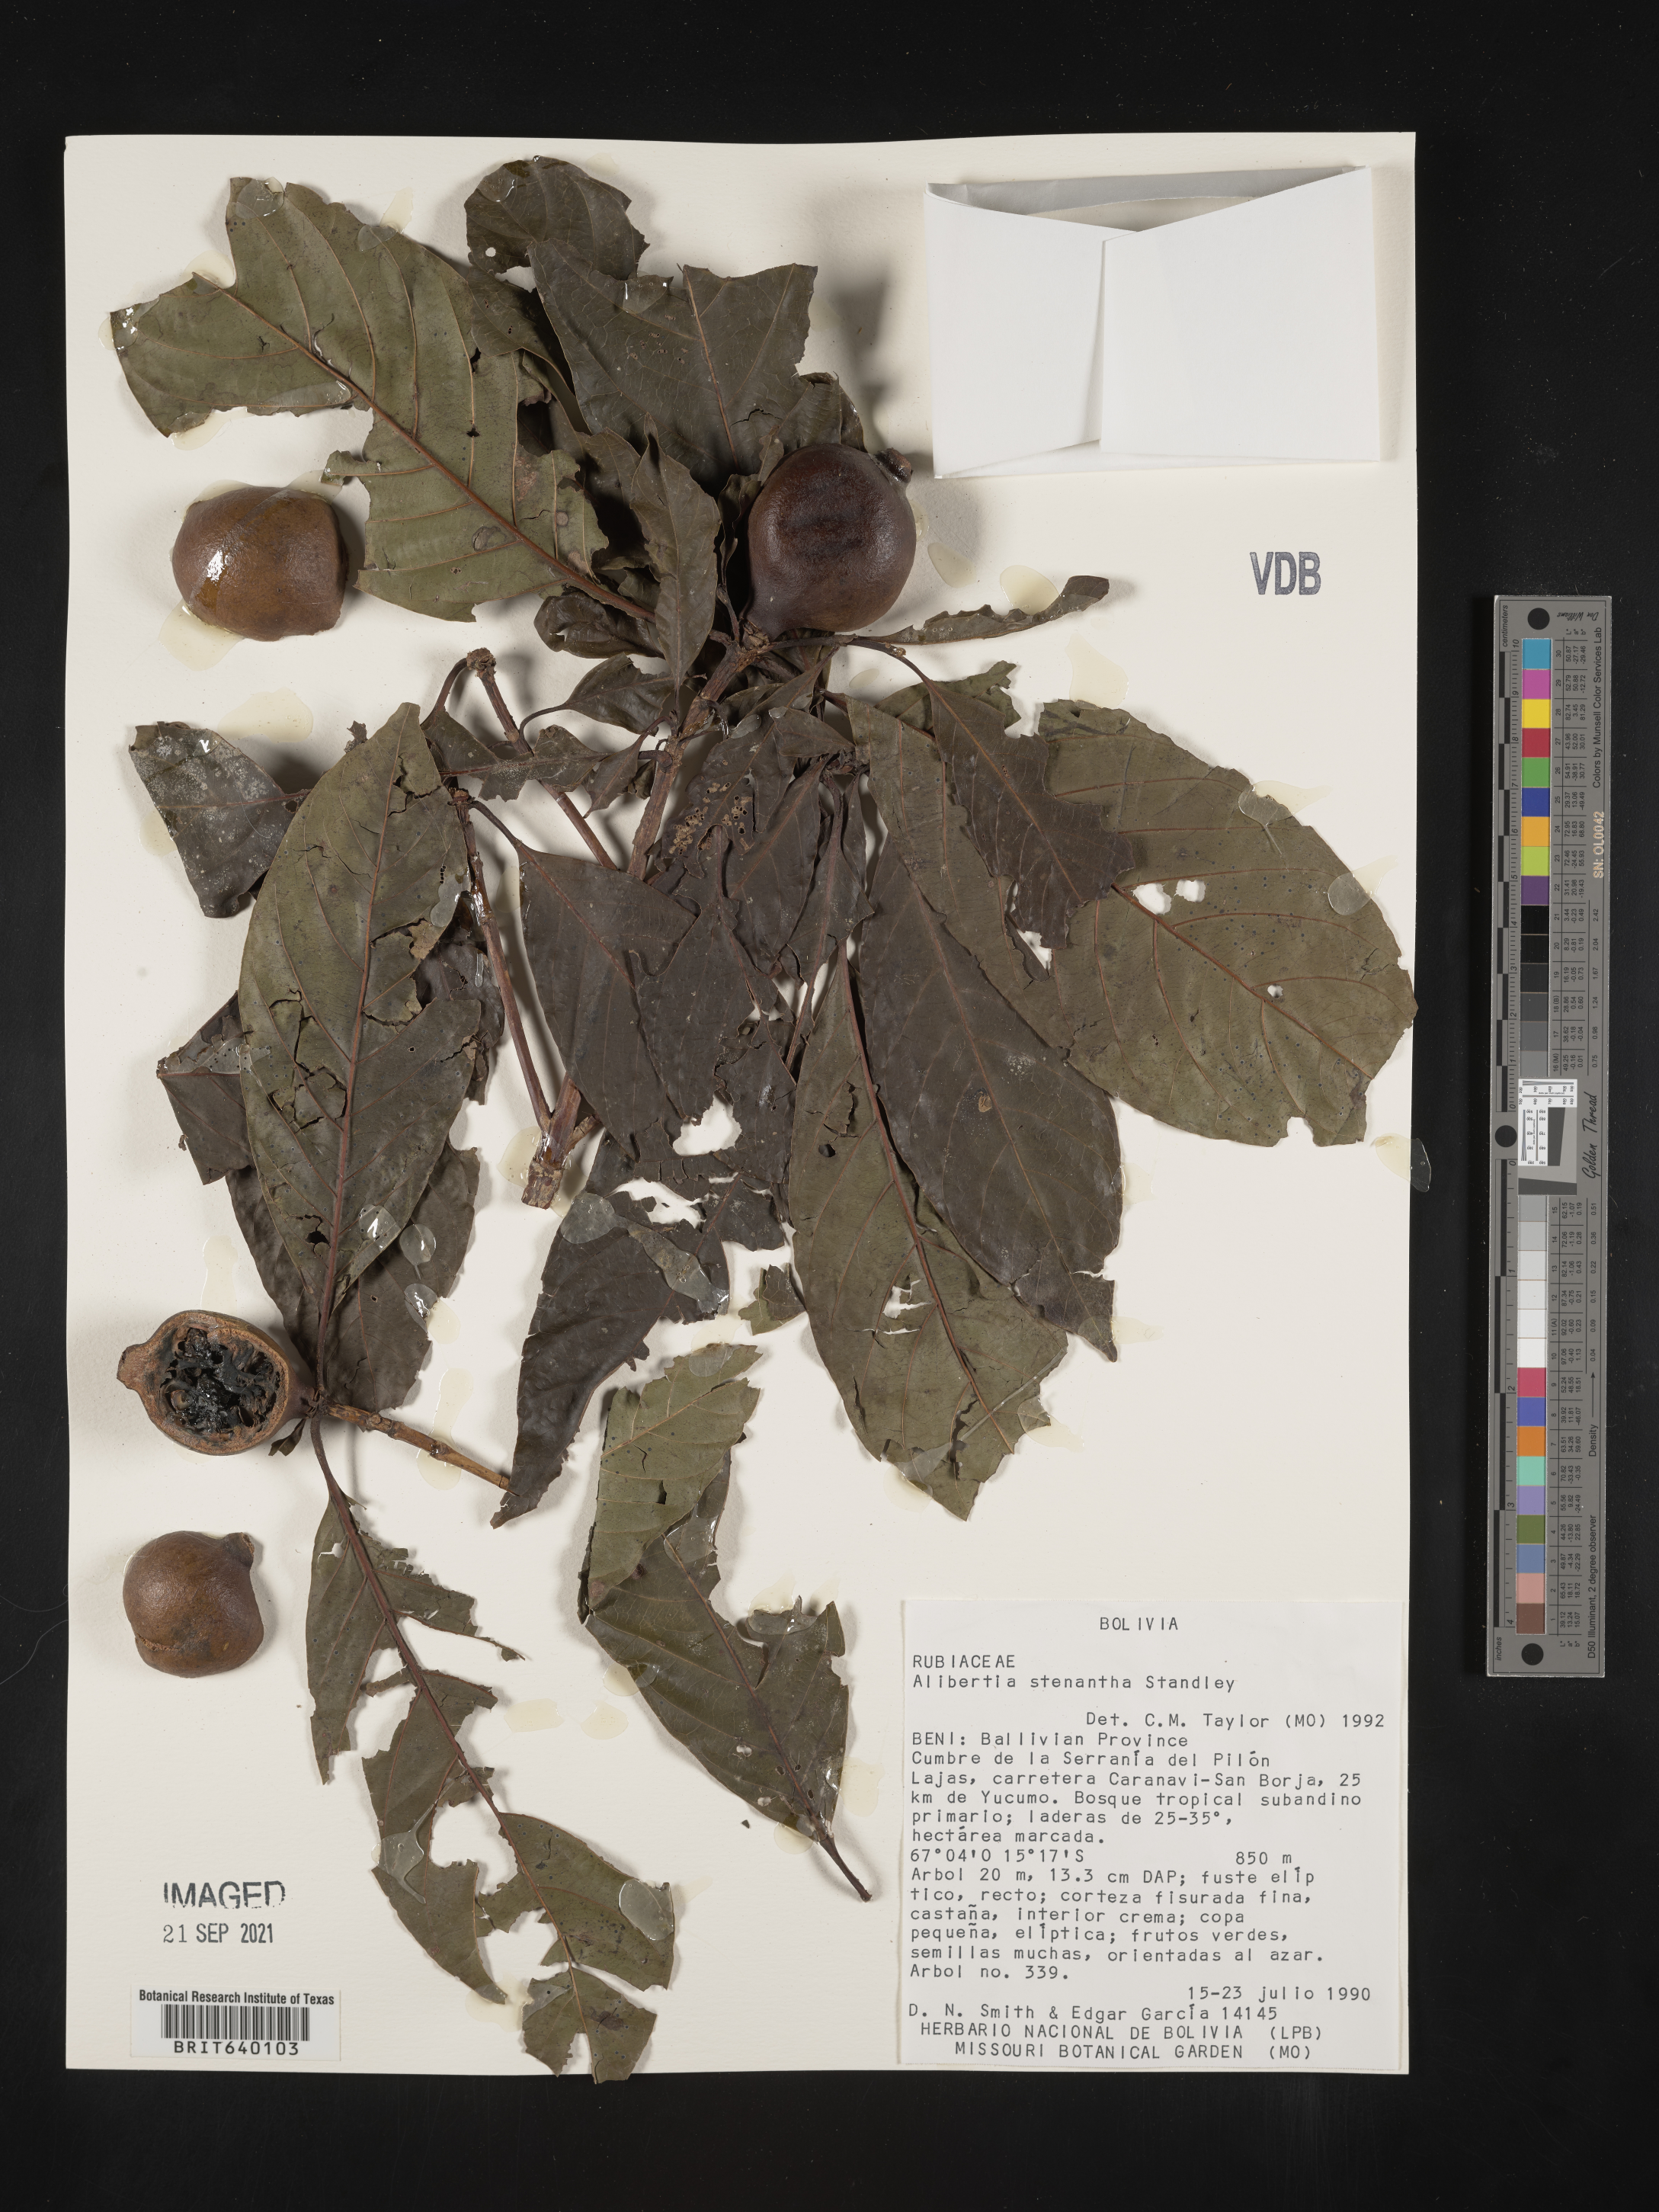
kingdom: Plantae
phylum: Tracheophyta
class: Magnoliopsida
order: Gentianales
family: Rubiaceae
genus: Alibertia
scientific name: Alibertia
